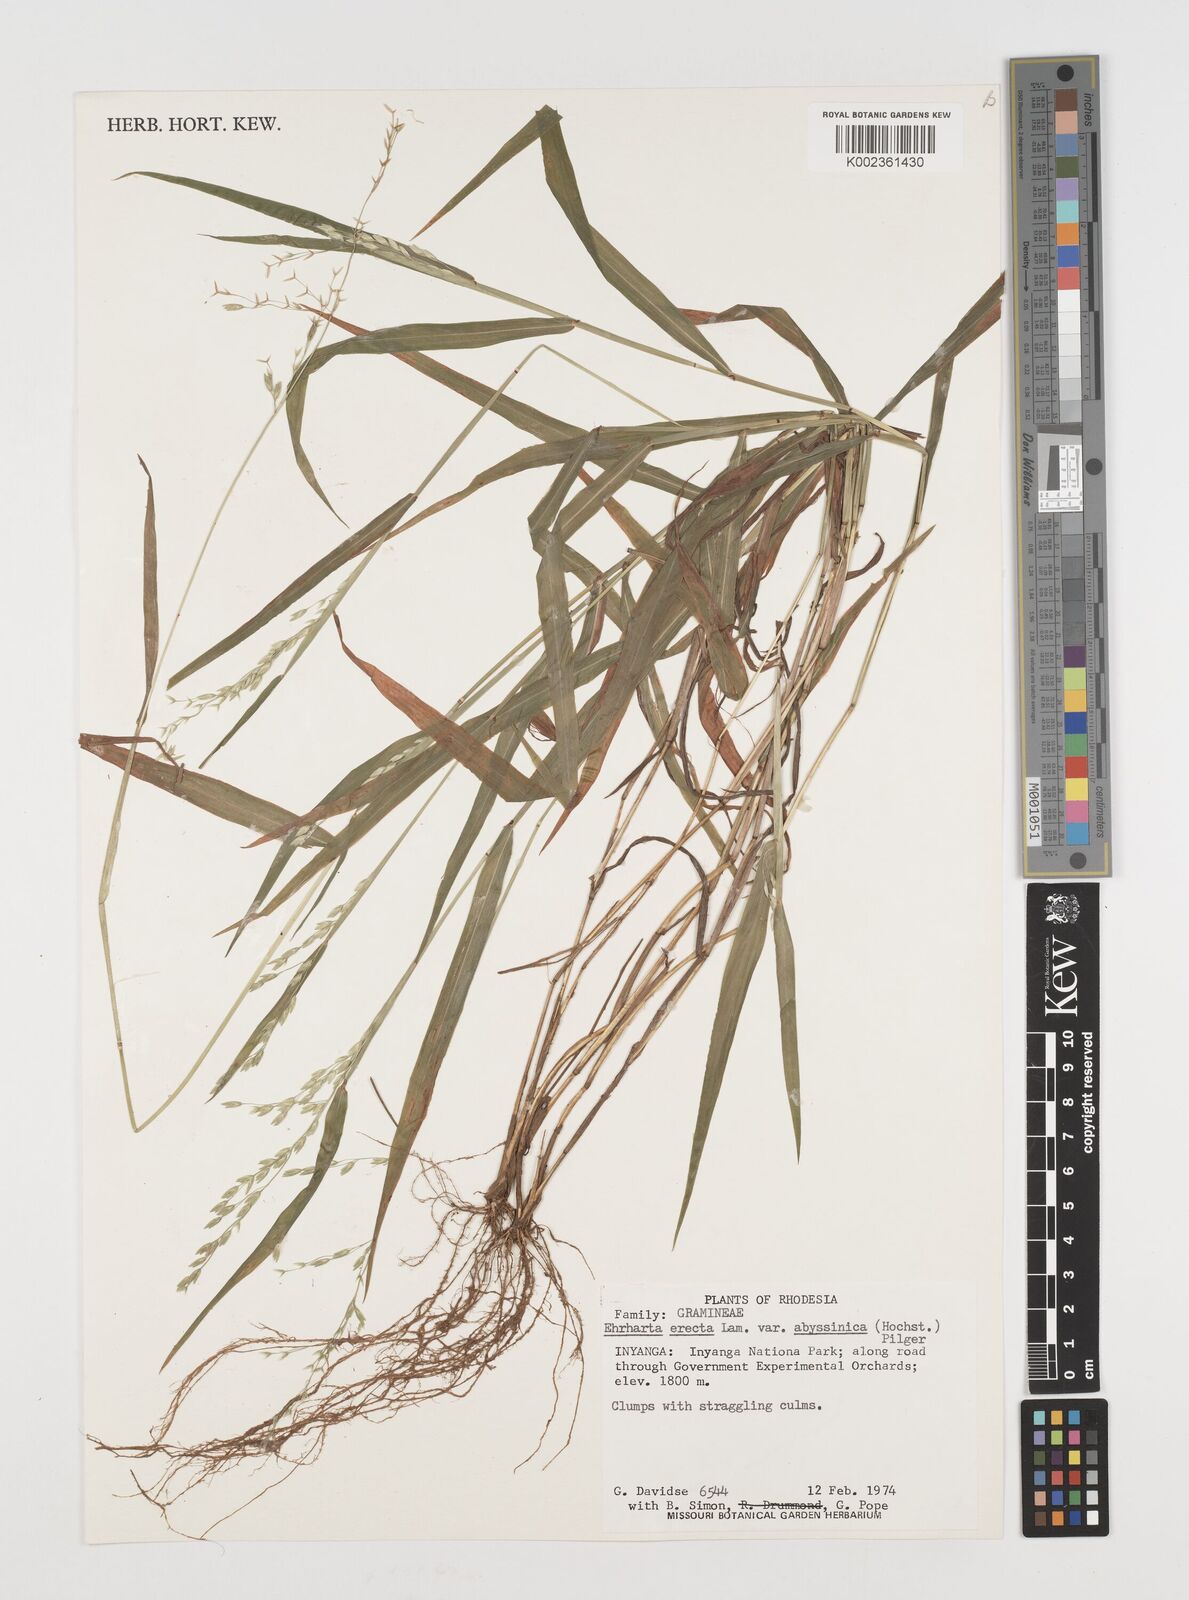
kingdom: Plantae
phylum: Tracheophyta
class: Liliopsida
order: Poales
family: Poaceae
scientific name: Poaceae
